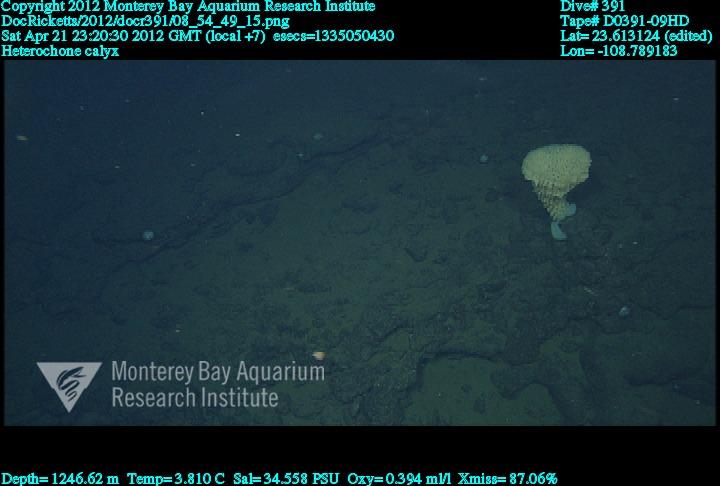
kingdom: Animalia
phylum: Porifera
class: Hexactinellida
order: Sceptrulophora
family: Aphrocallistidae
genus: Heterochone
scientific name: Heterochone calyx
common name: Fingered goblet glass sponge
